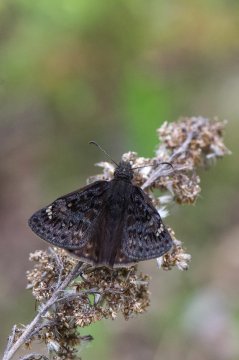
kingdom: Animalia
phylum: Arthropoda
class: Insecta
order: Lepidoptera
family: Hesperiidae
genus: Gesta
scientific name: Gesta
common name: Juvenal's Duskywing
